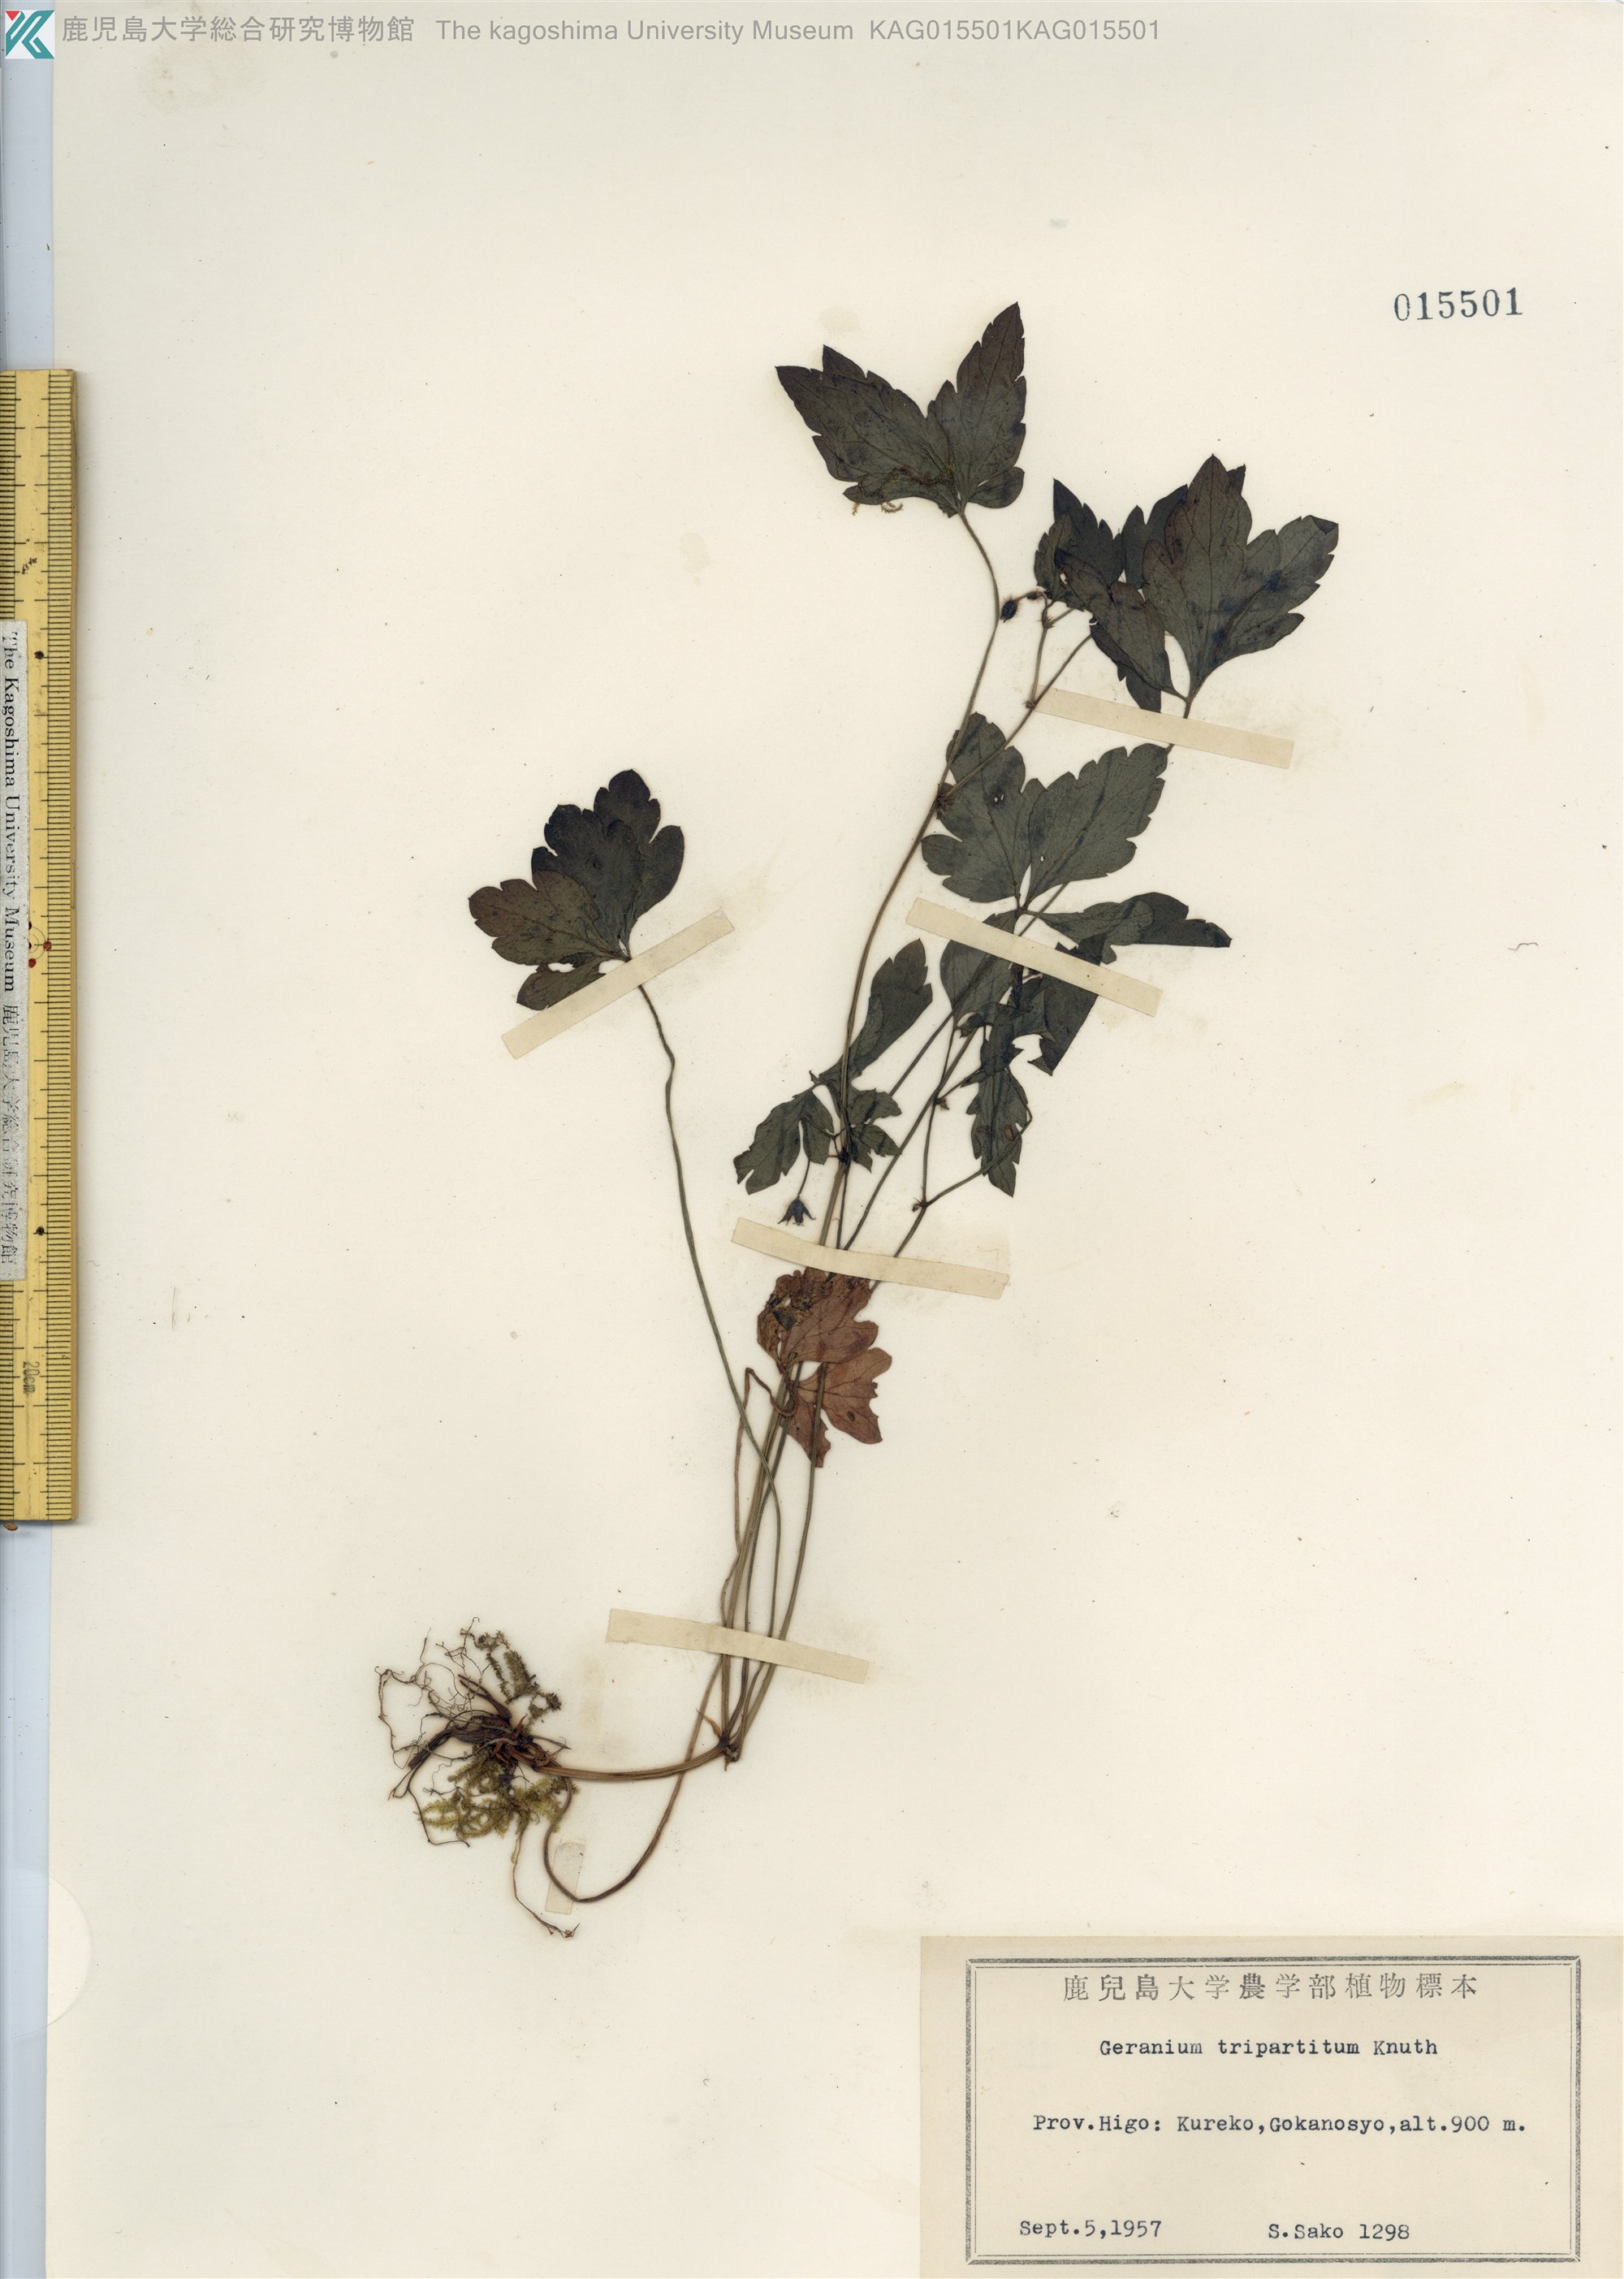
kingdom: Plantae
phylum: Tracheophyta
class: Magnoliopsida
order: Geraniales
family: Geraniaceae
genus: Geranium
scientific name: Geranium tripartitum
